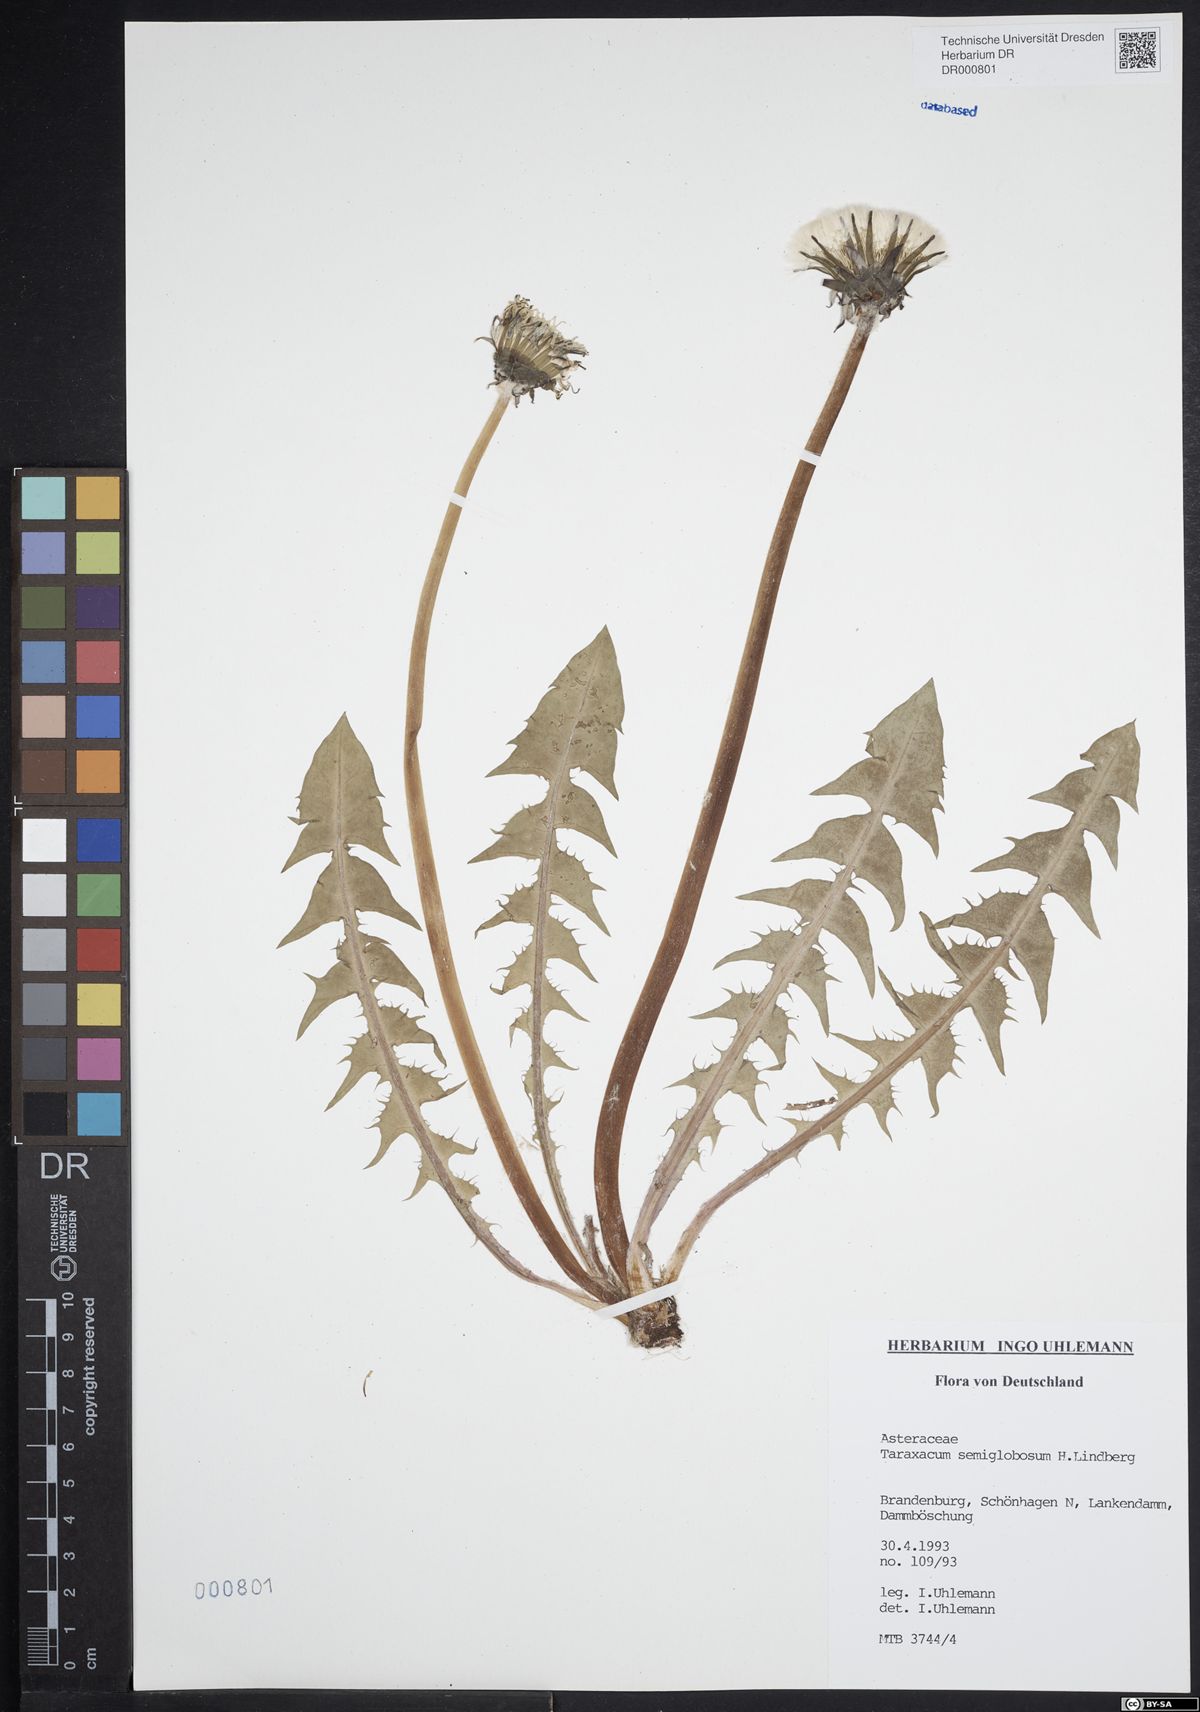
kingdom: Plantae
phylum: Tracheophyta
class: Magnoliopsida
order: Asterales
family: Asteraceae
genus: Taraxacum
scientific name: Taraxacum semiglobosum
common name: Hairy-ribbed dandelion
